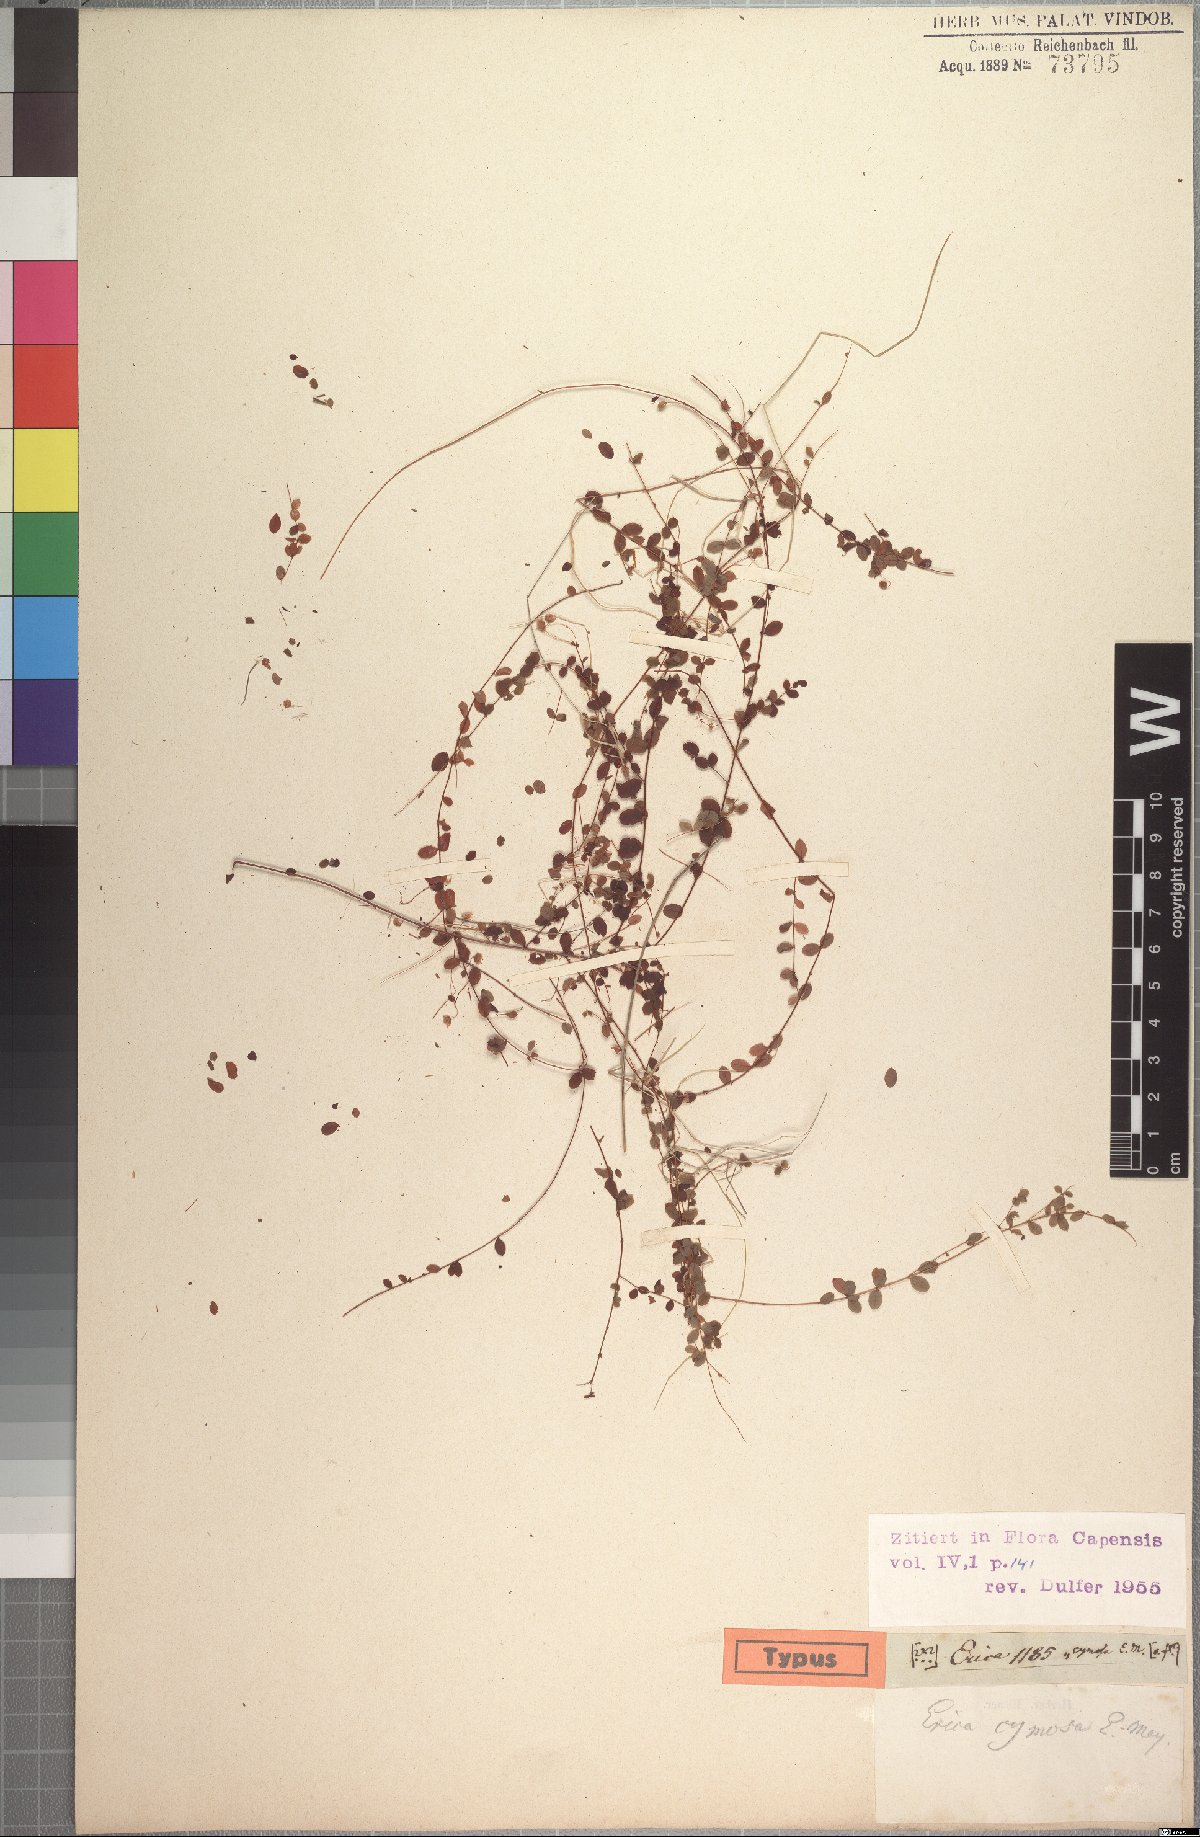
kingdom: Plantae
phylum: Tracheophyta
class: Magnoliopsida
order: Ericales
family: Ericaceae
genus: Erica
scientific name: Erica cymosa
